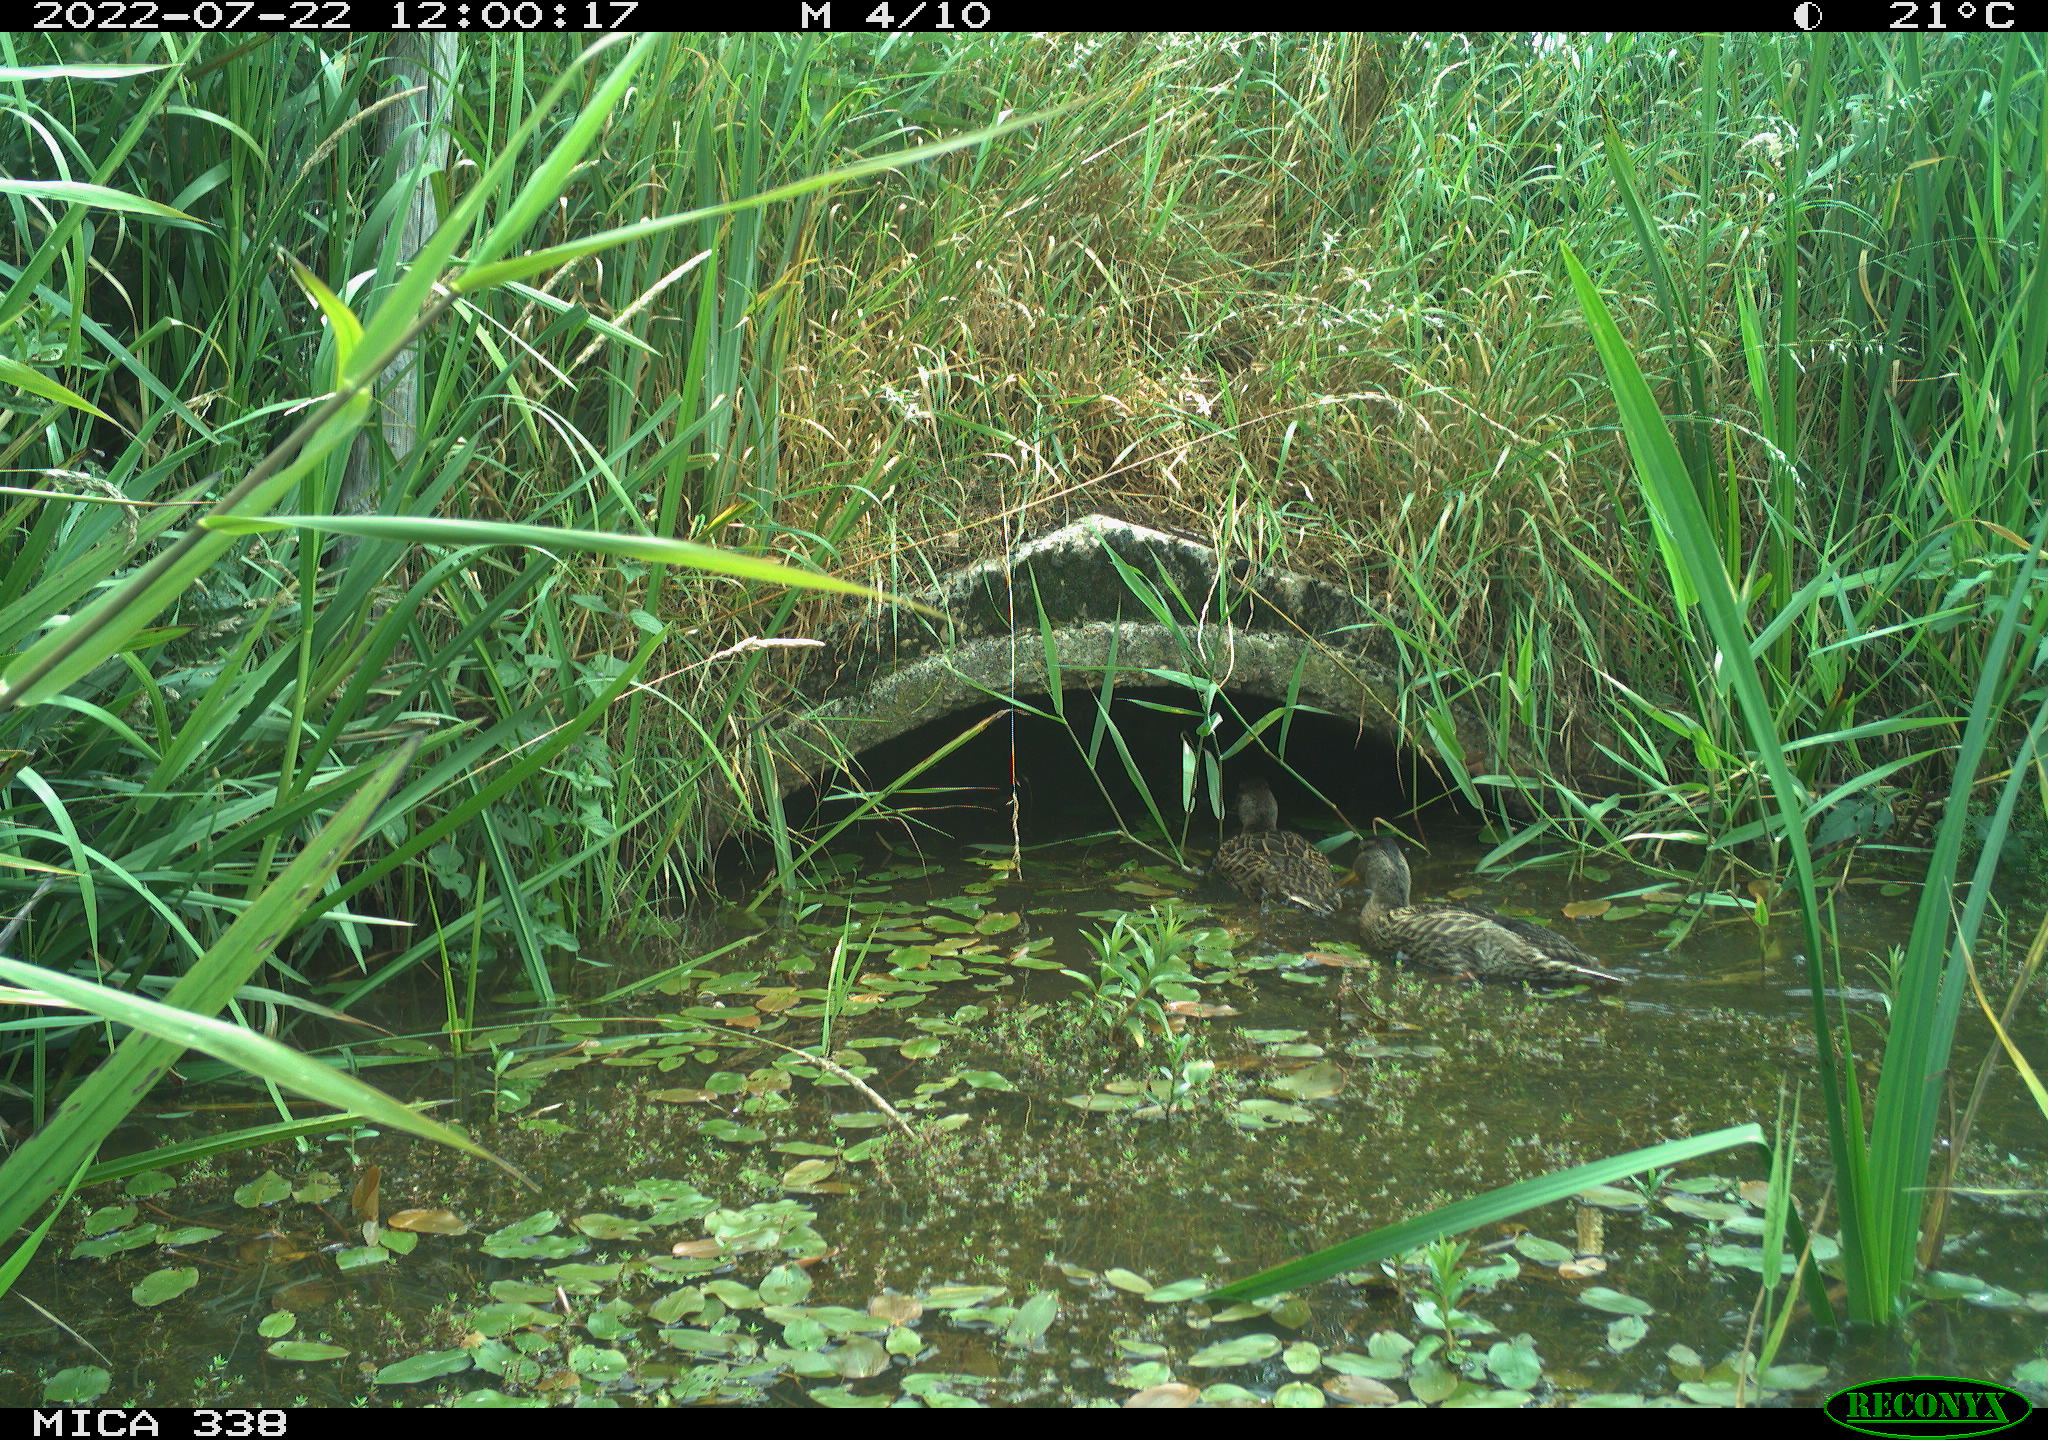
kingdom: Animalia
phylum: Chordata
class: Aves
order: Anseriformes
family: Anatidae
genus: Anas
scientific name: Anas platyrhynchos
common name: Mallard
